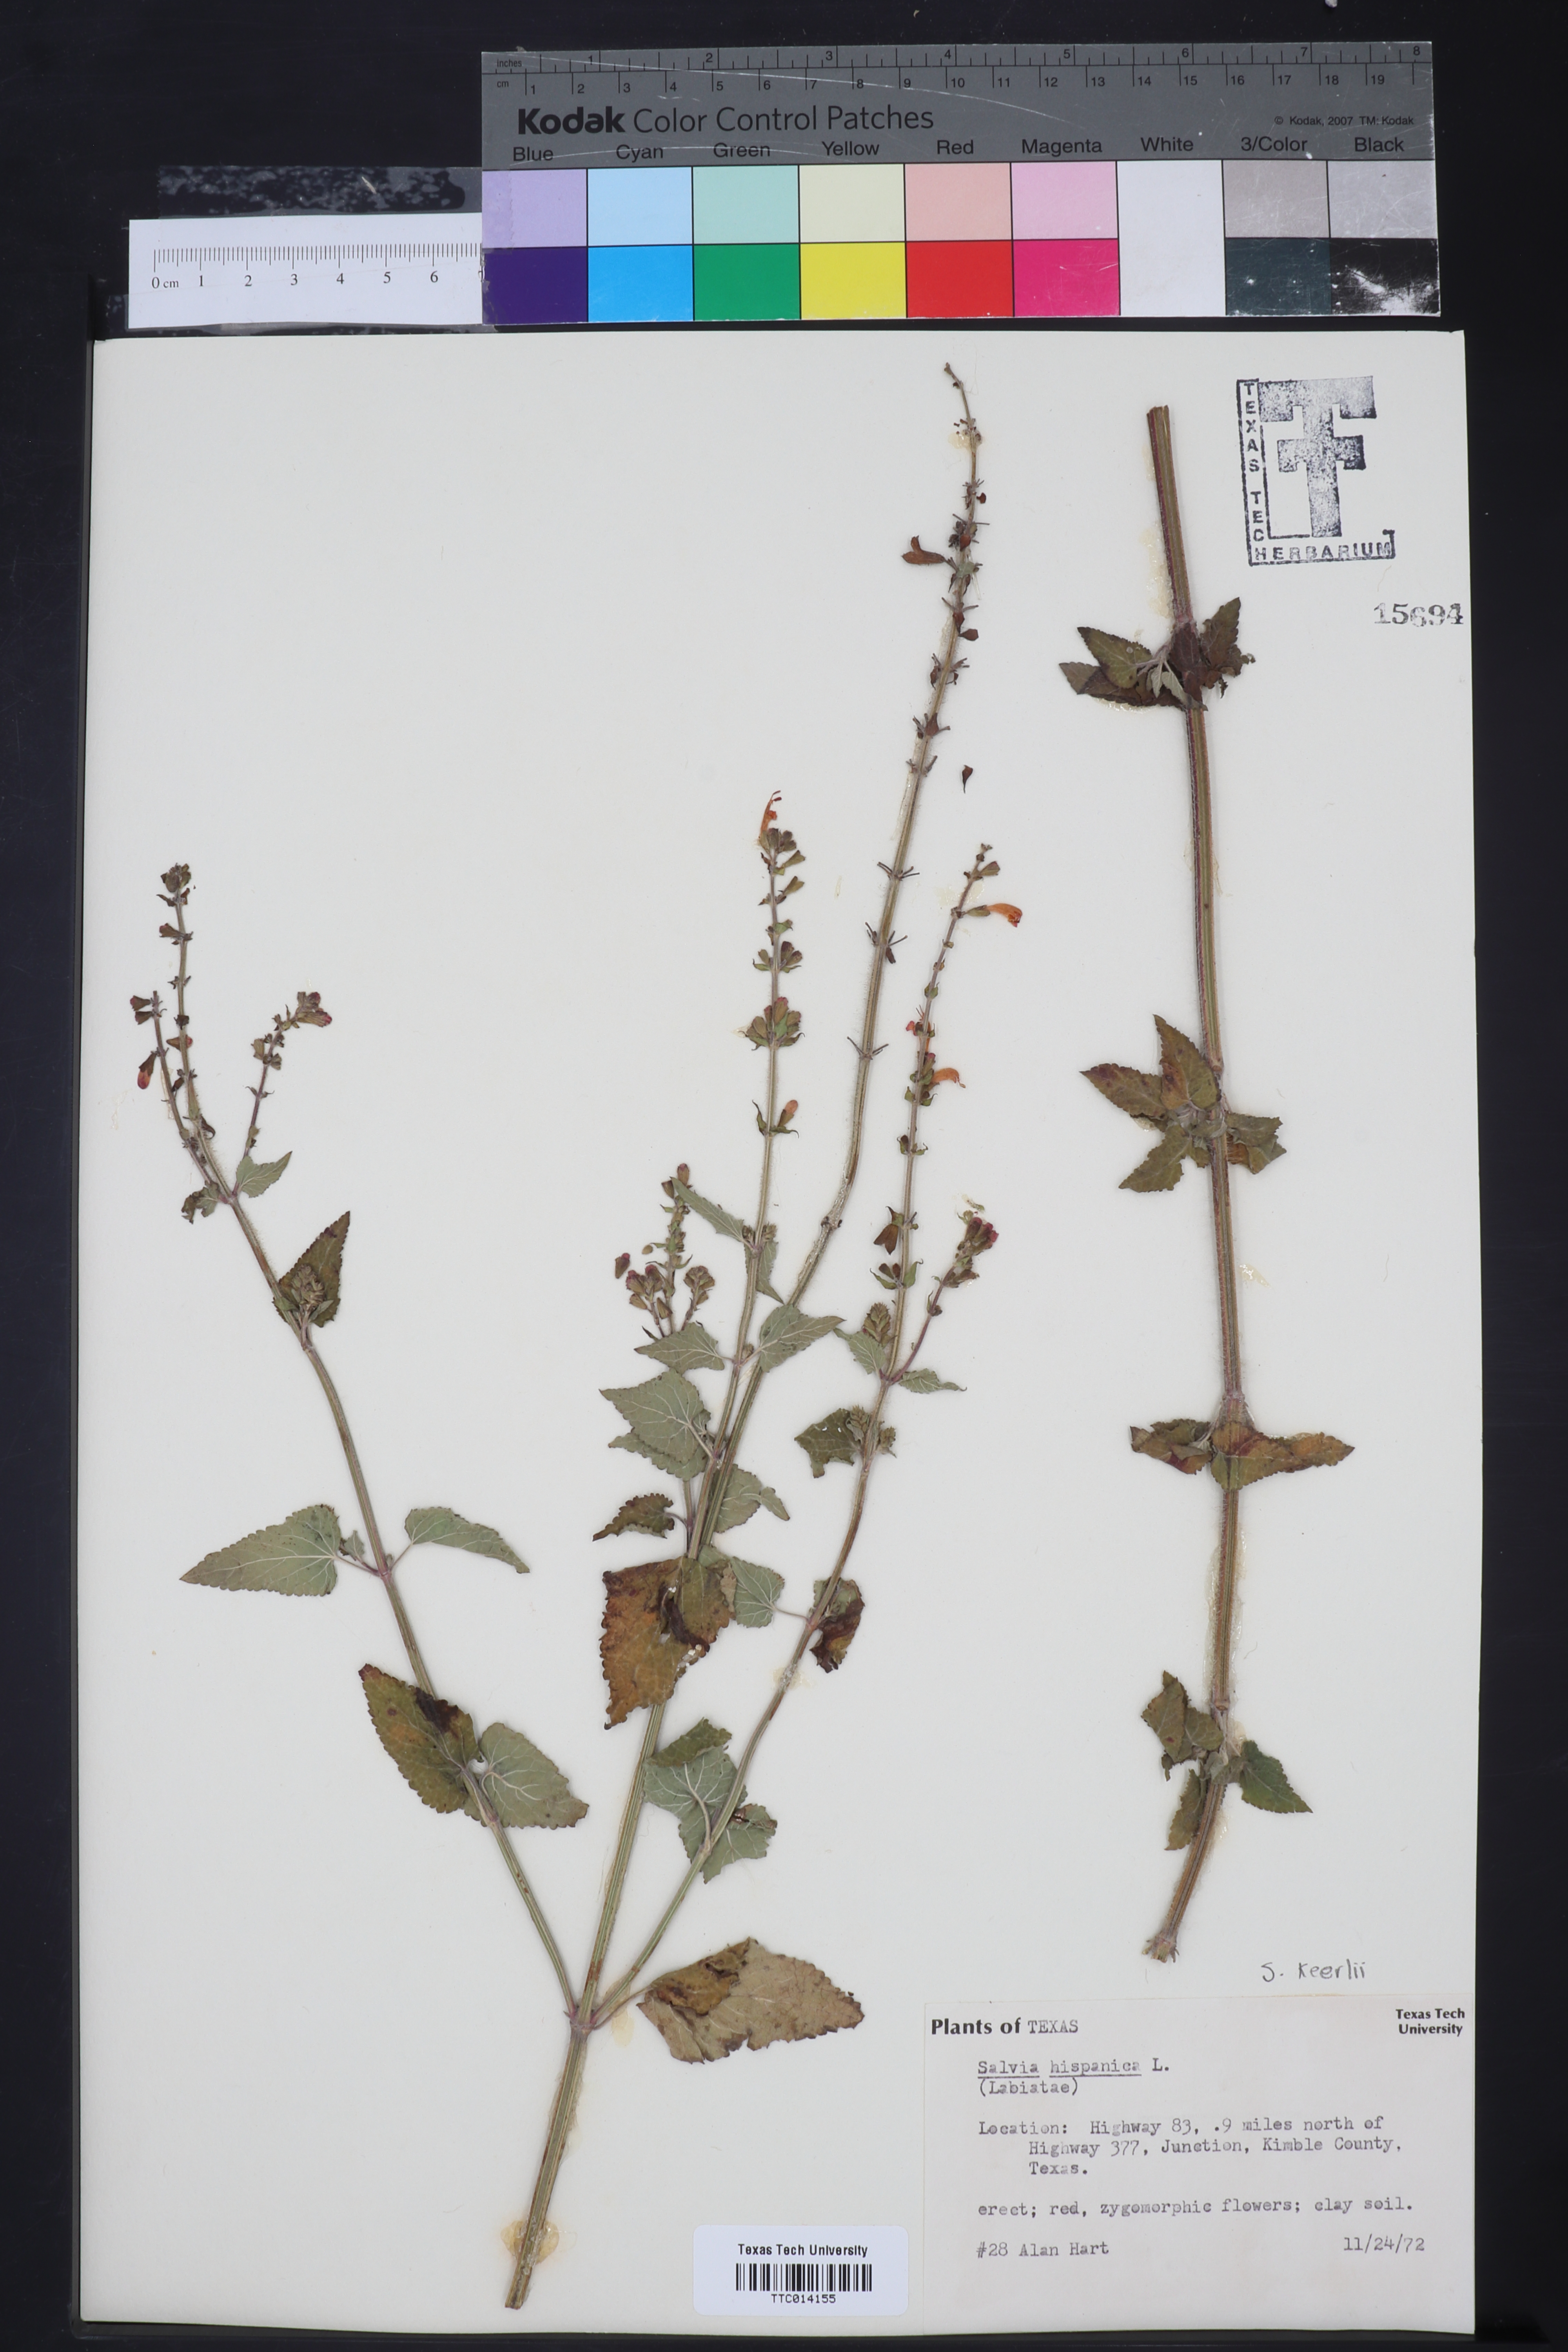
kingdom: Plantae
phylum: Tracheophyta
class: Magnoliopsida
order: Lamiales
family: Lamiaceae
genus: Salvia
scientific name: Salvia hispanica
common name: Chia
